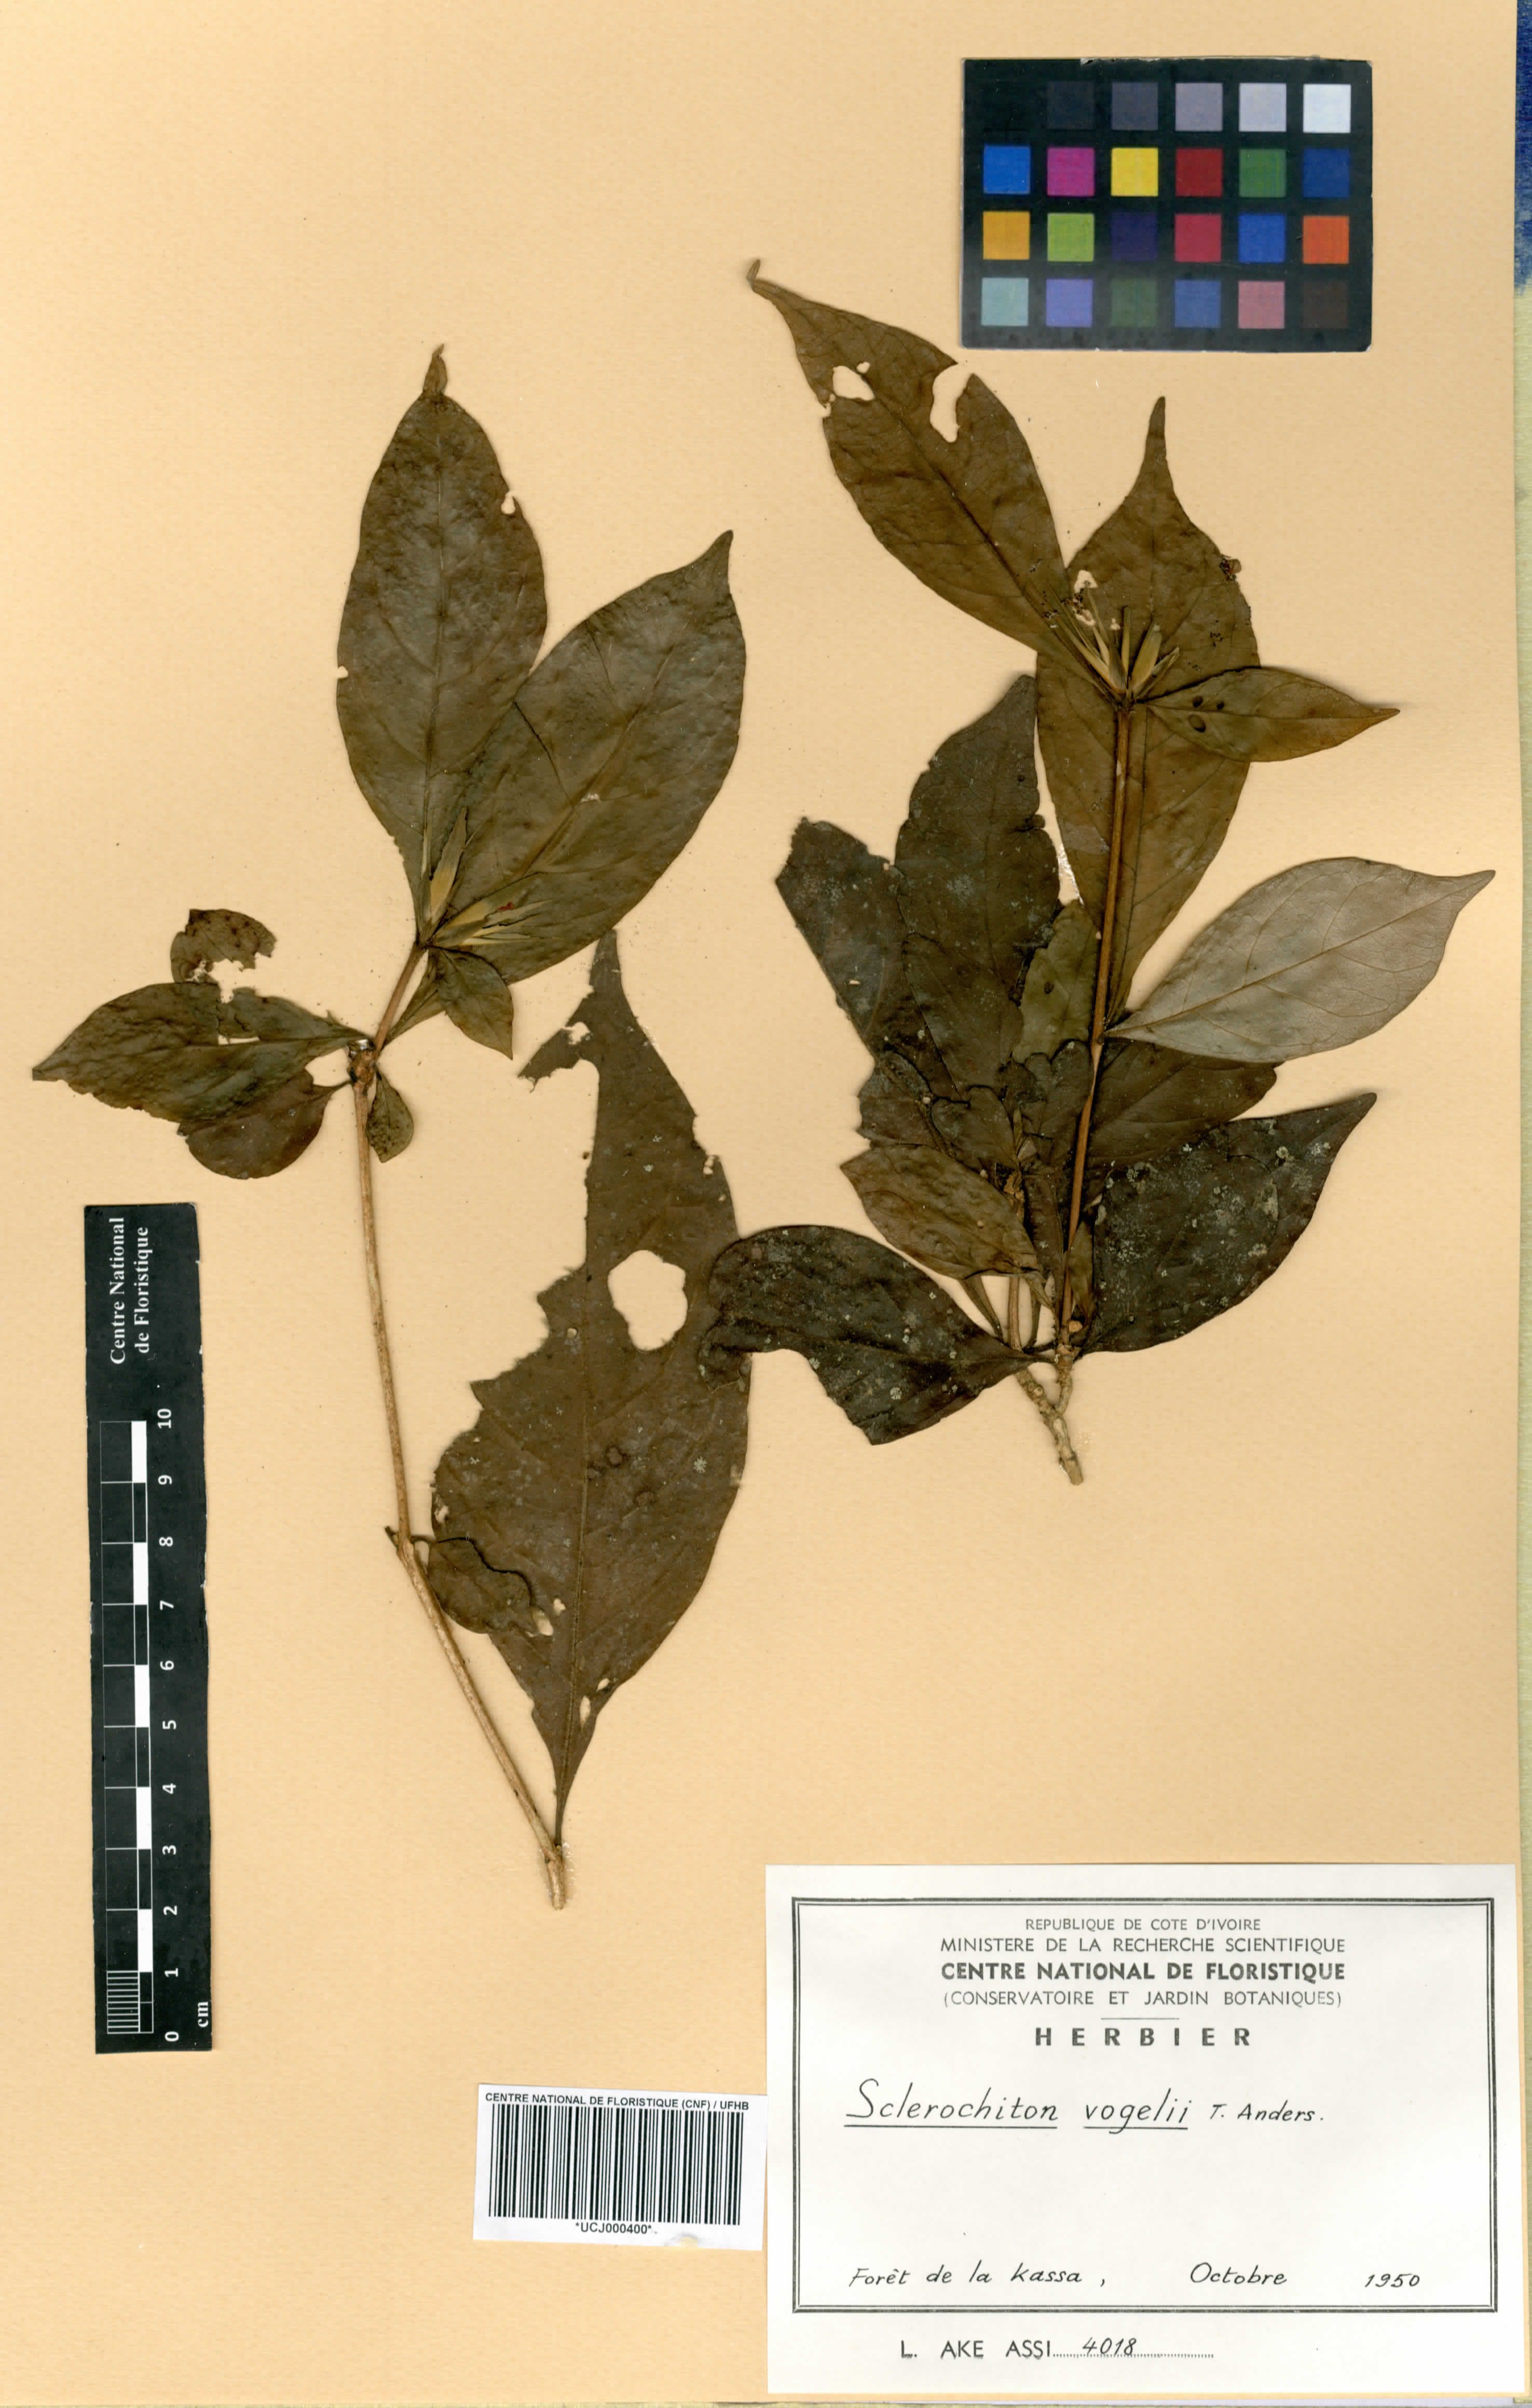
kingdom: Plantae
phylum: Tracheophyta
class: Magnoliopsida
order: Lamiales
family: Acanthaceae
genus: Sclerochiton
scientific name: Sclerochiton vogelii
